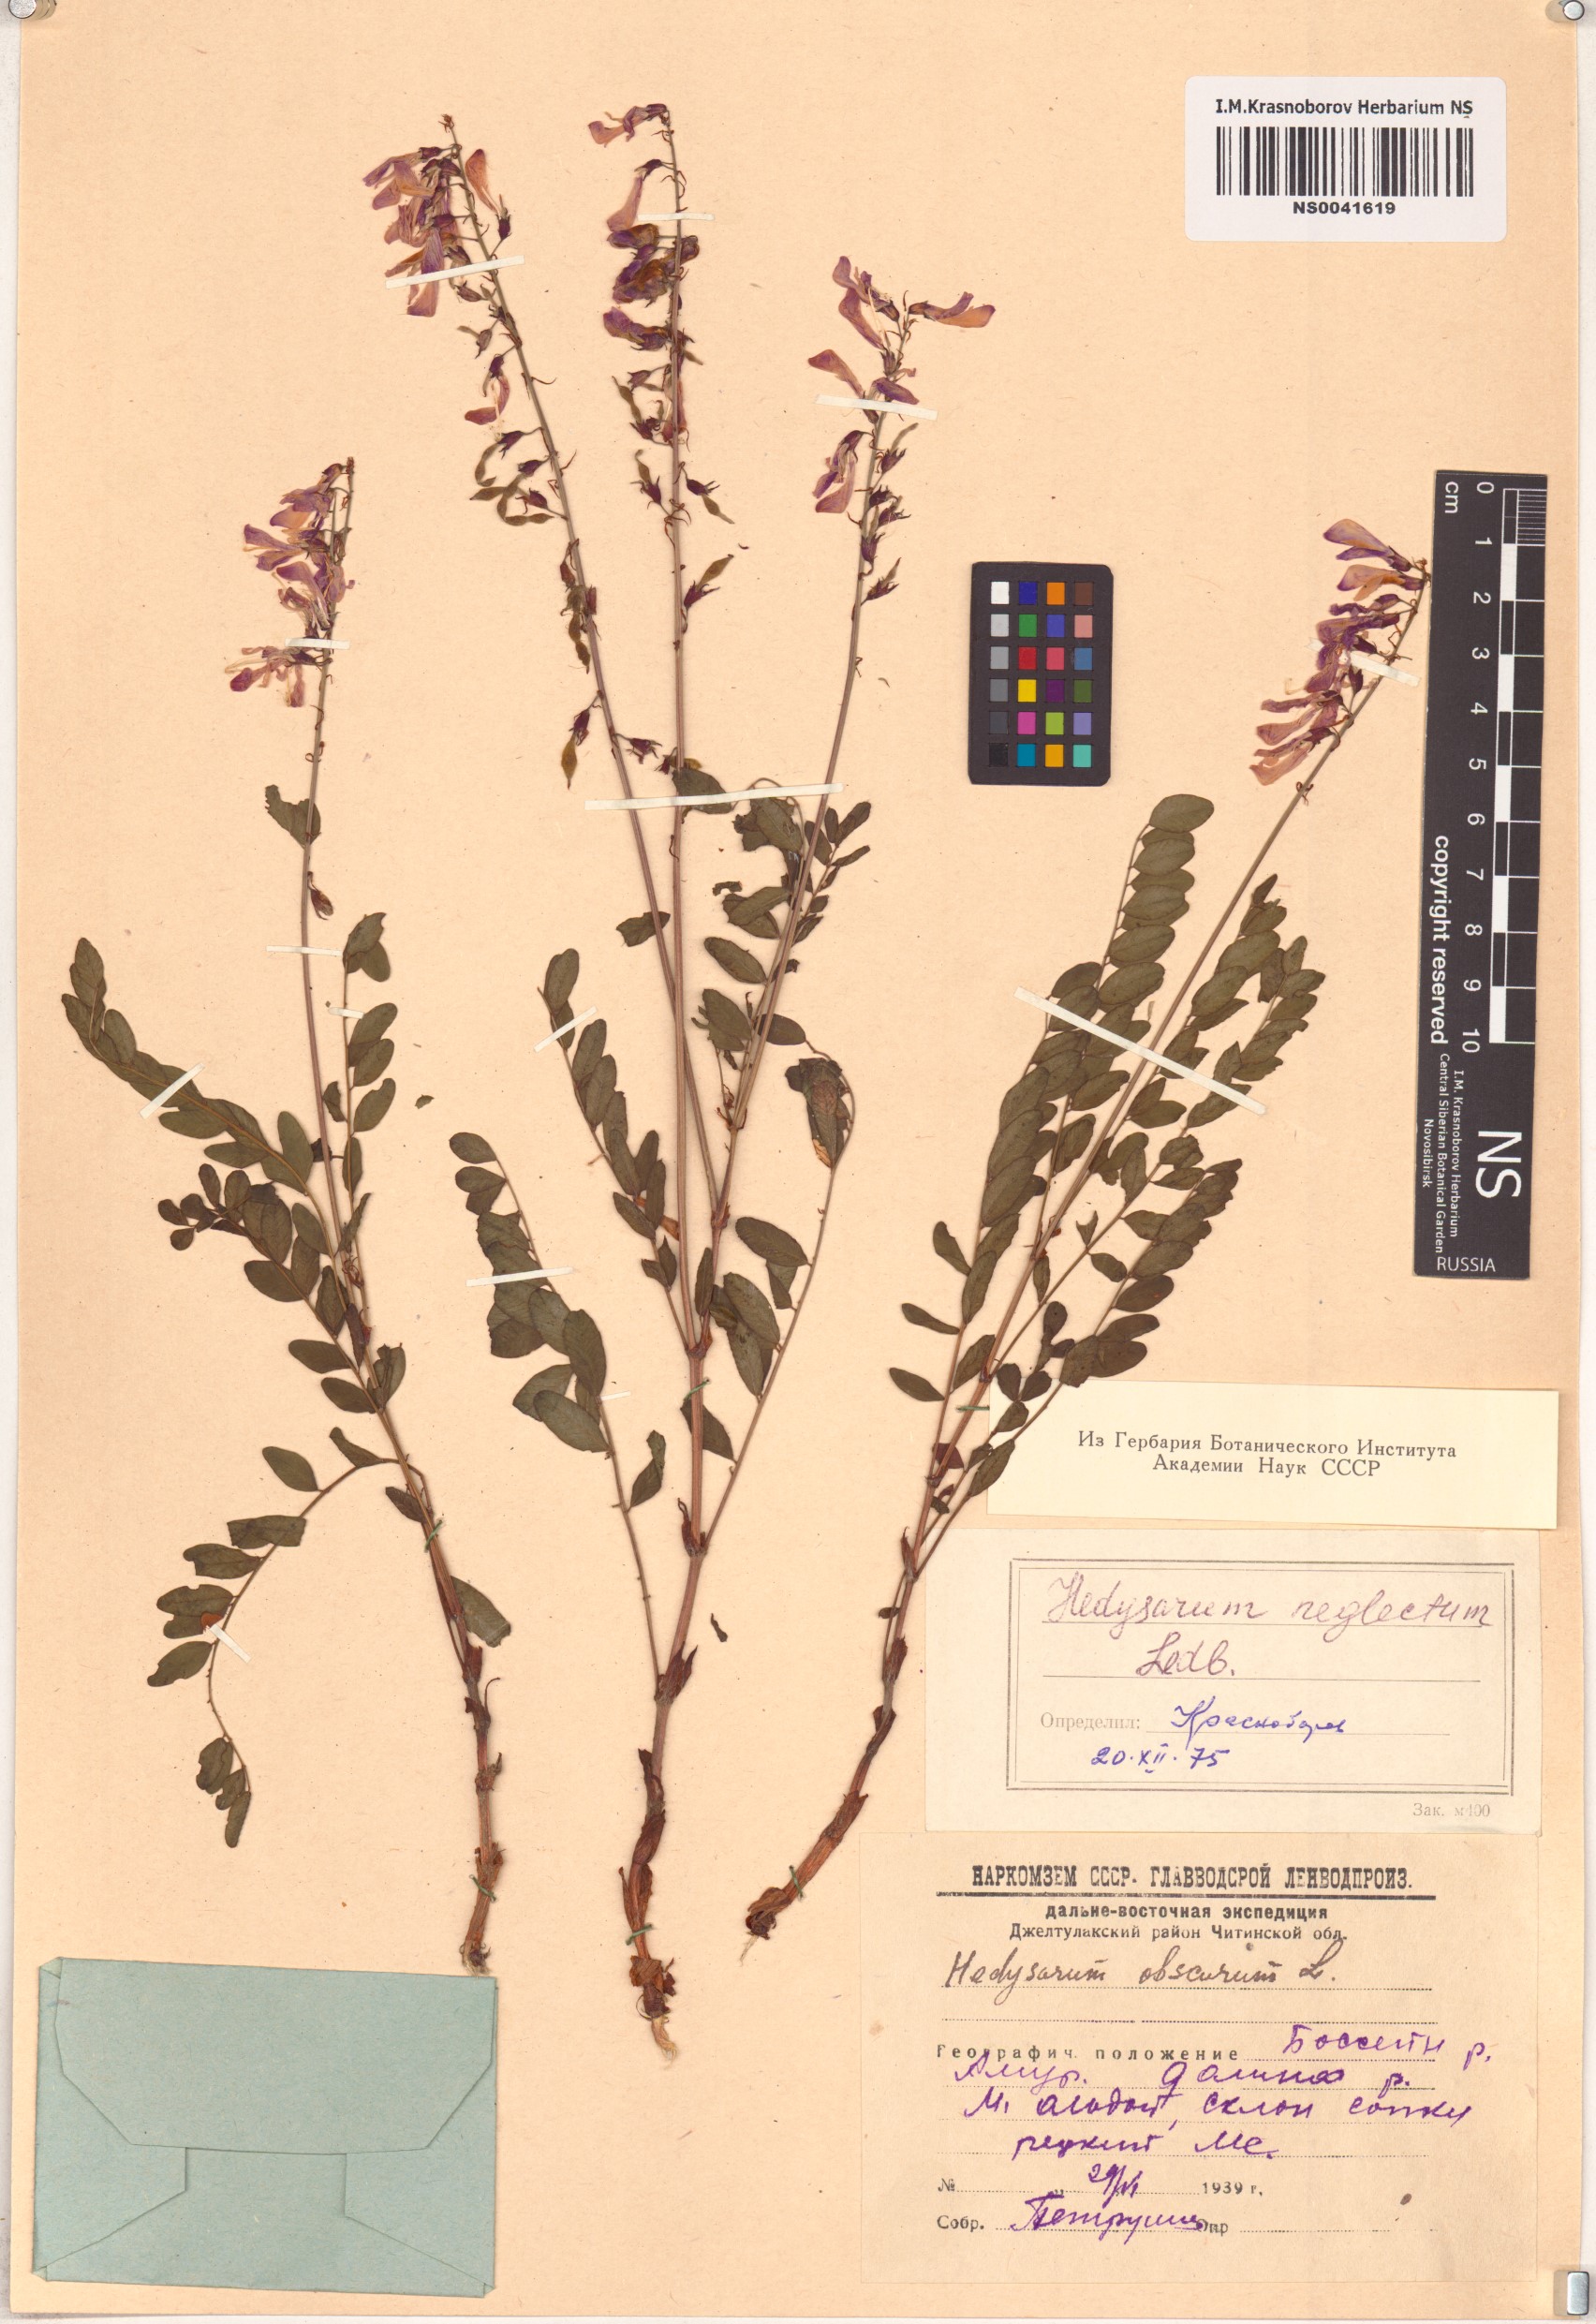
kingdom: Plantae
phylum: Tracheophyta
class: Magnoliopsida
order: Fabales
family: Fabaceae
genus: Hedysarum
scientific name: Hedysarum neglectum
